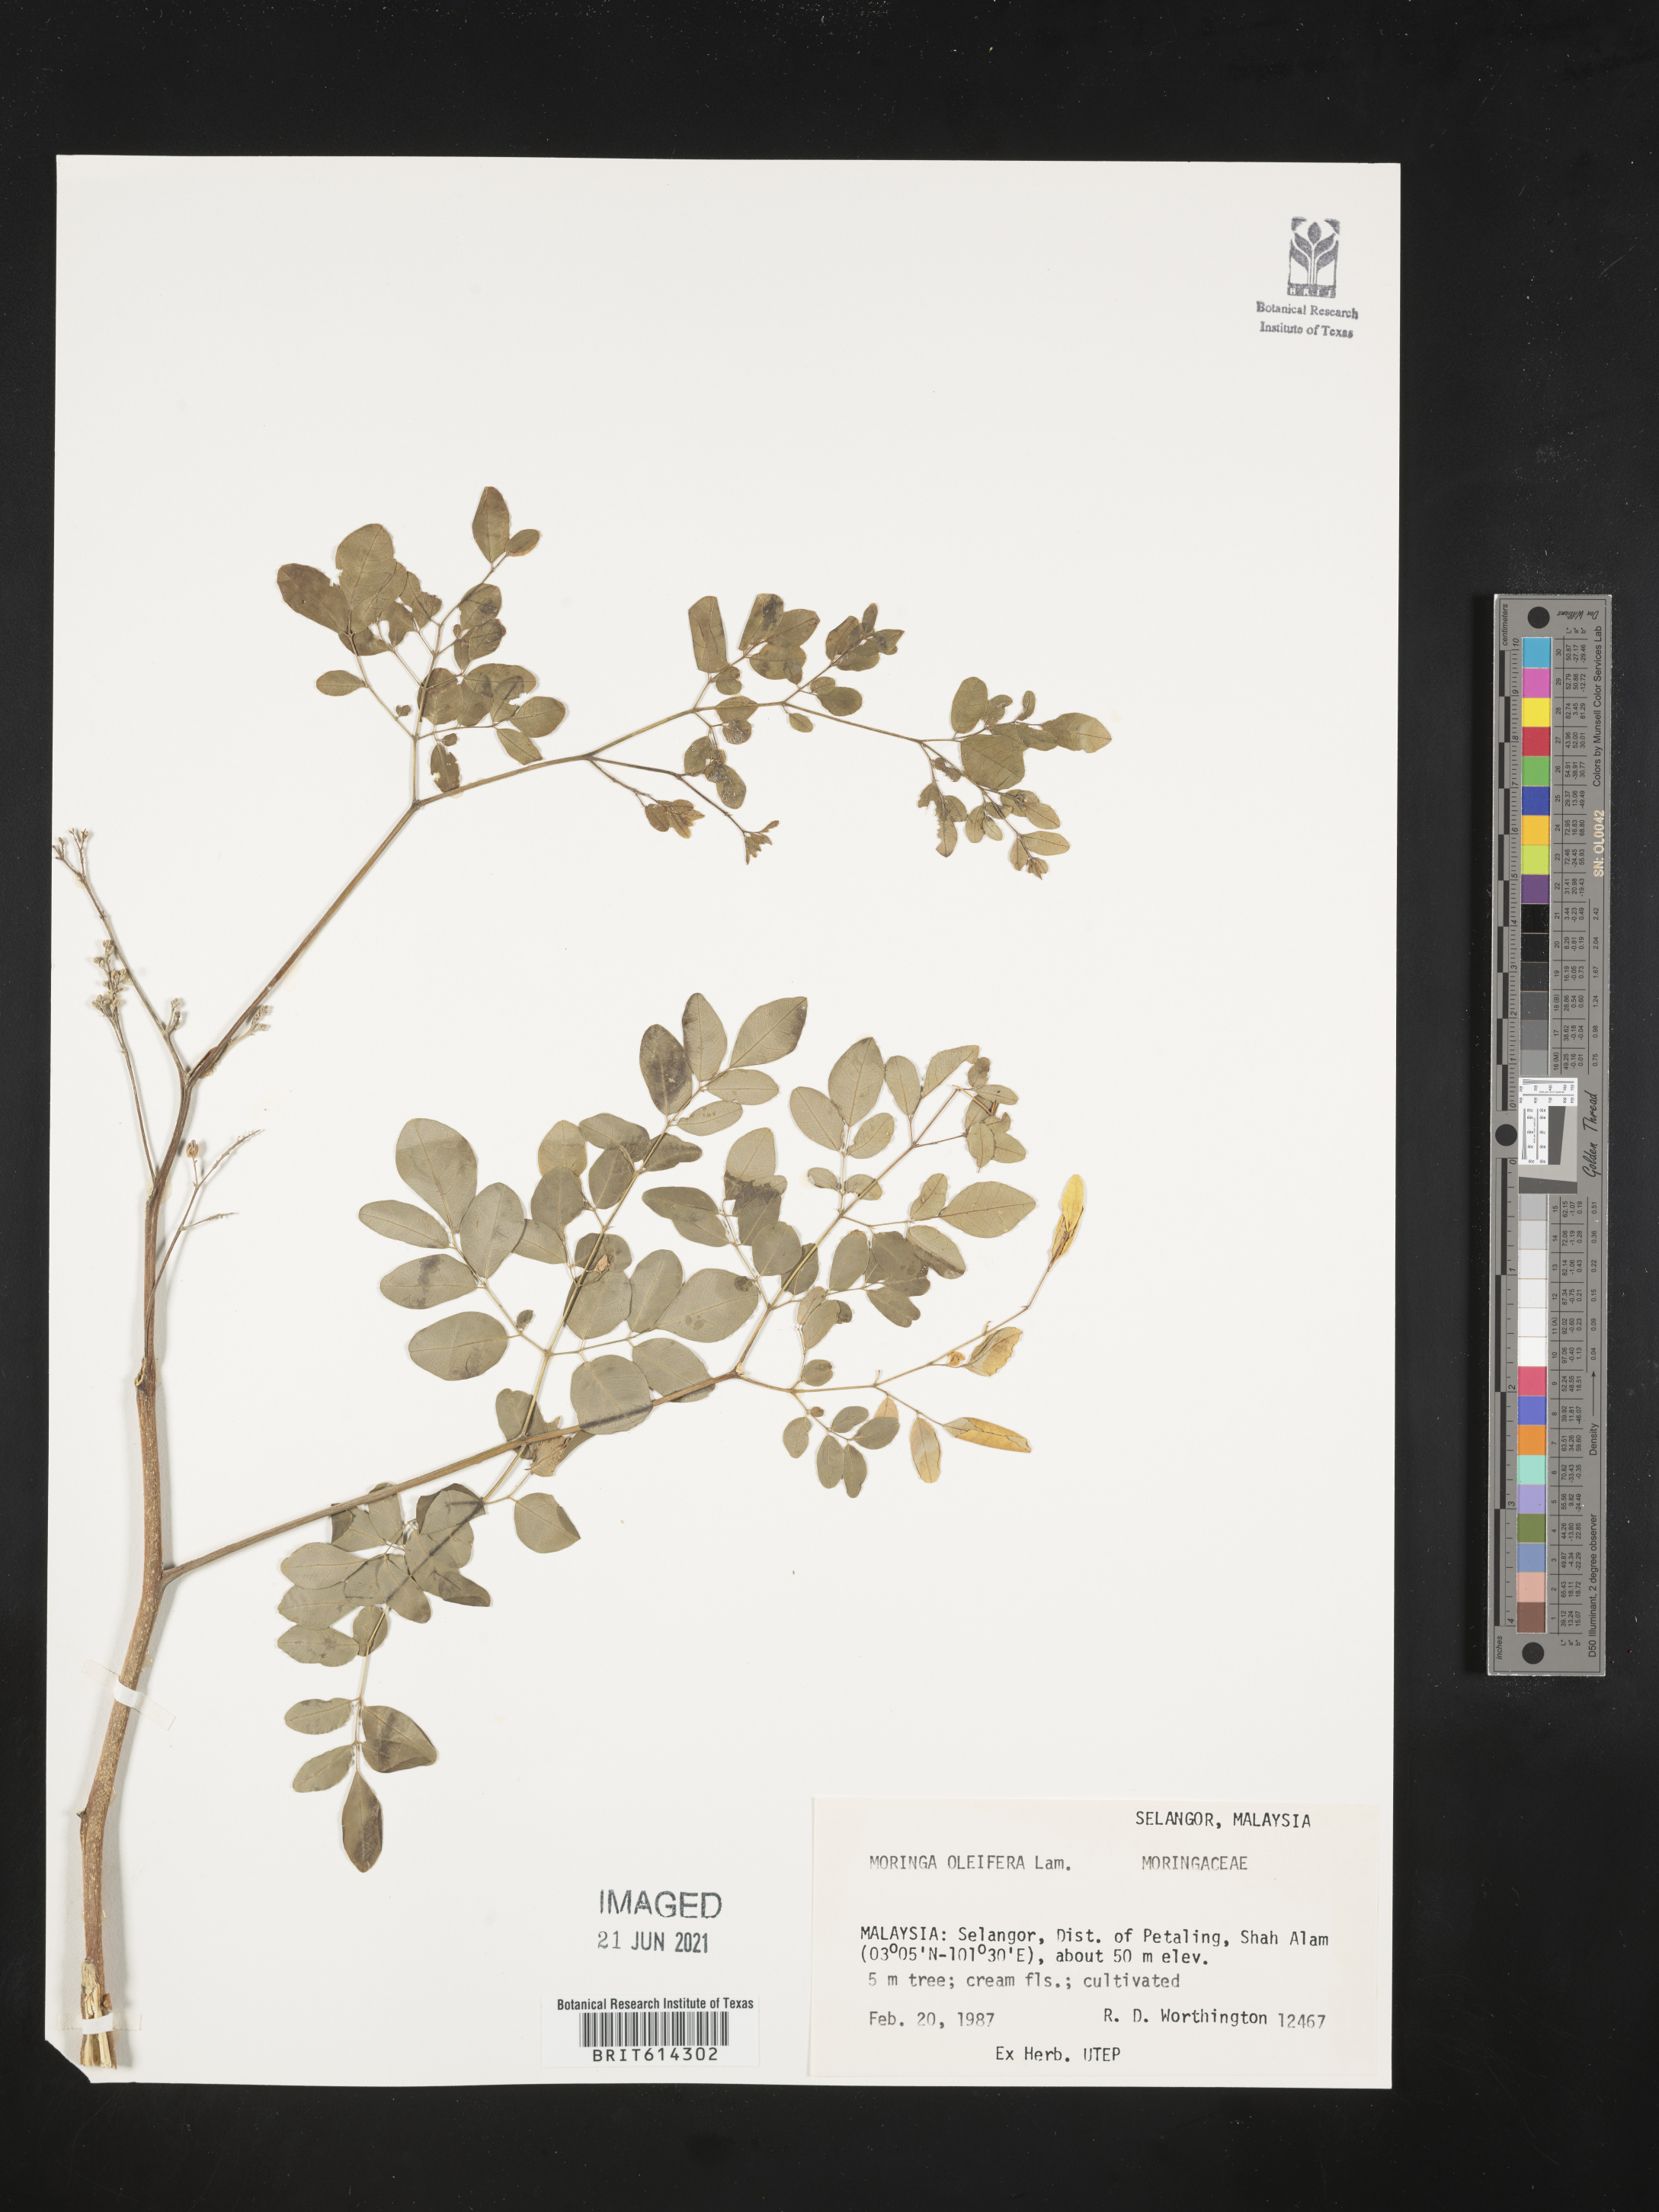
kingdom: Plantae
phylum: Tracheophyta
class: Magnoliopsida
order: Brassicales
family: Moringaceae
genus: Moringa
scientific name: Moringa oleifera
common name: Horseradish-tree
